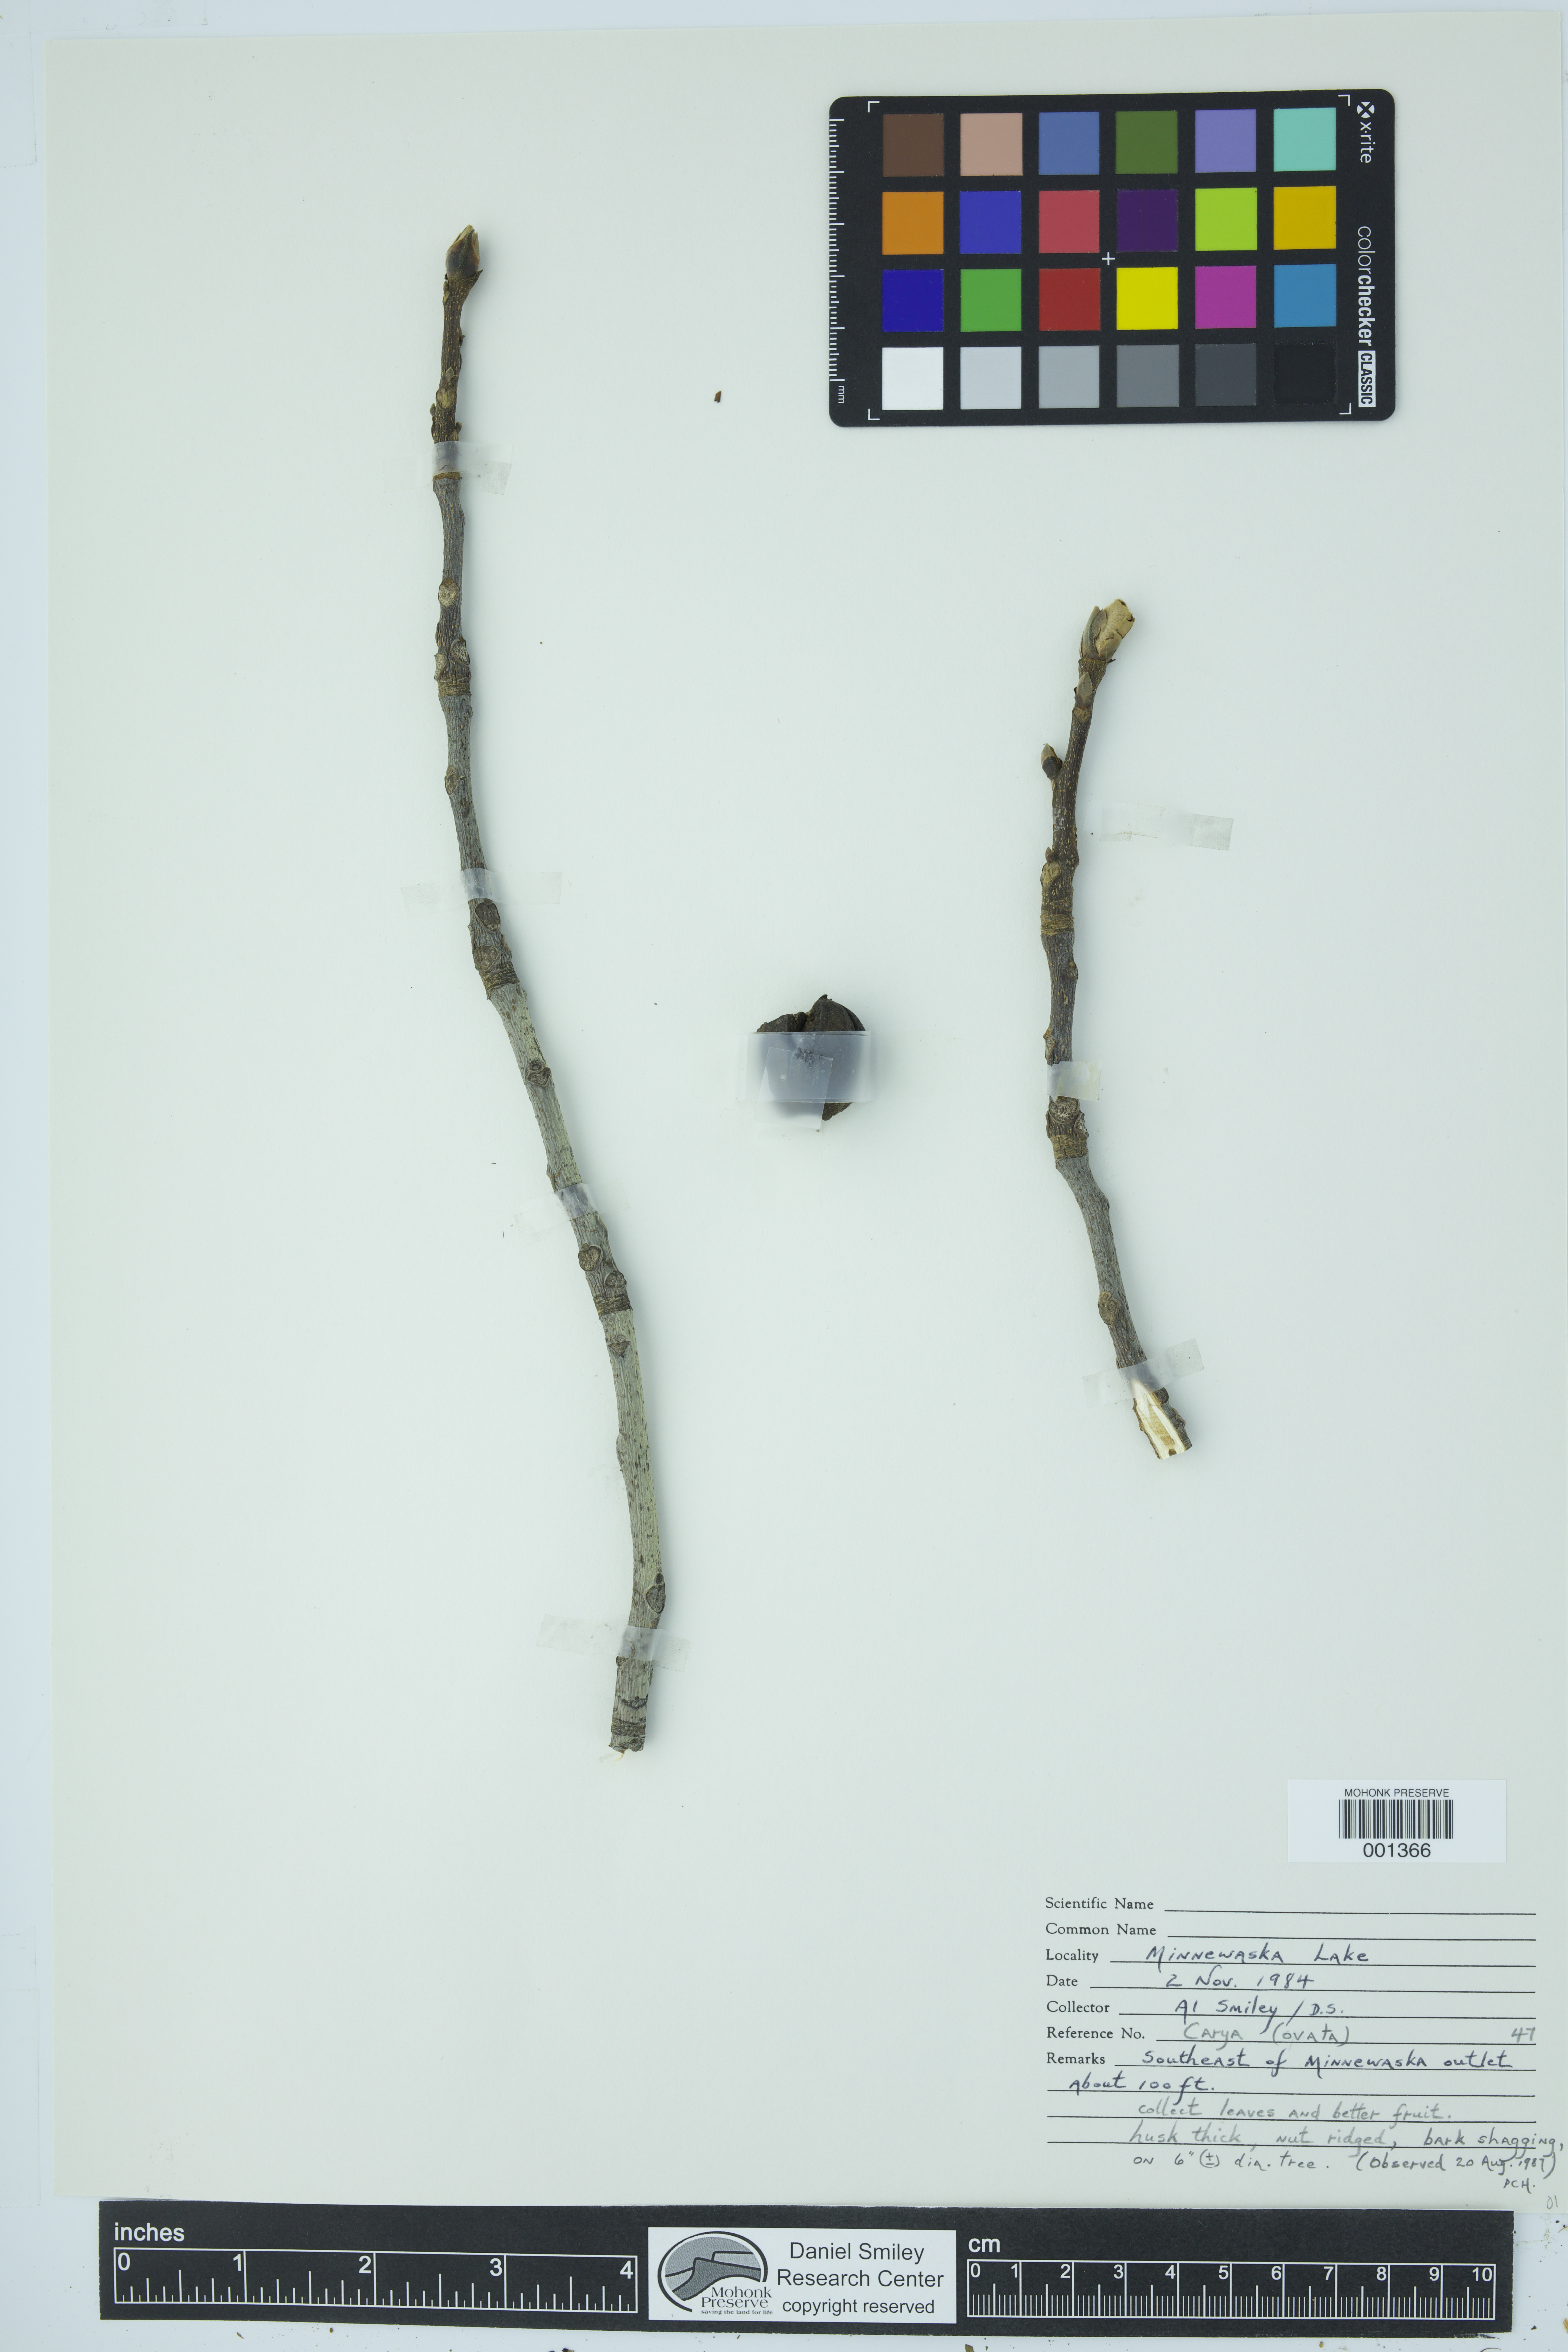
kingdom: Plantae
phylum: Tracheophyta
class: Magnoliopsida
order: Fagales
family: Juglandaceae
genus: Carya
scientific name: Carya ovata
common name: Shagbark hickory
